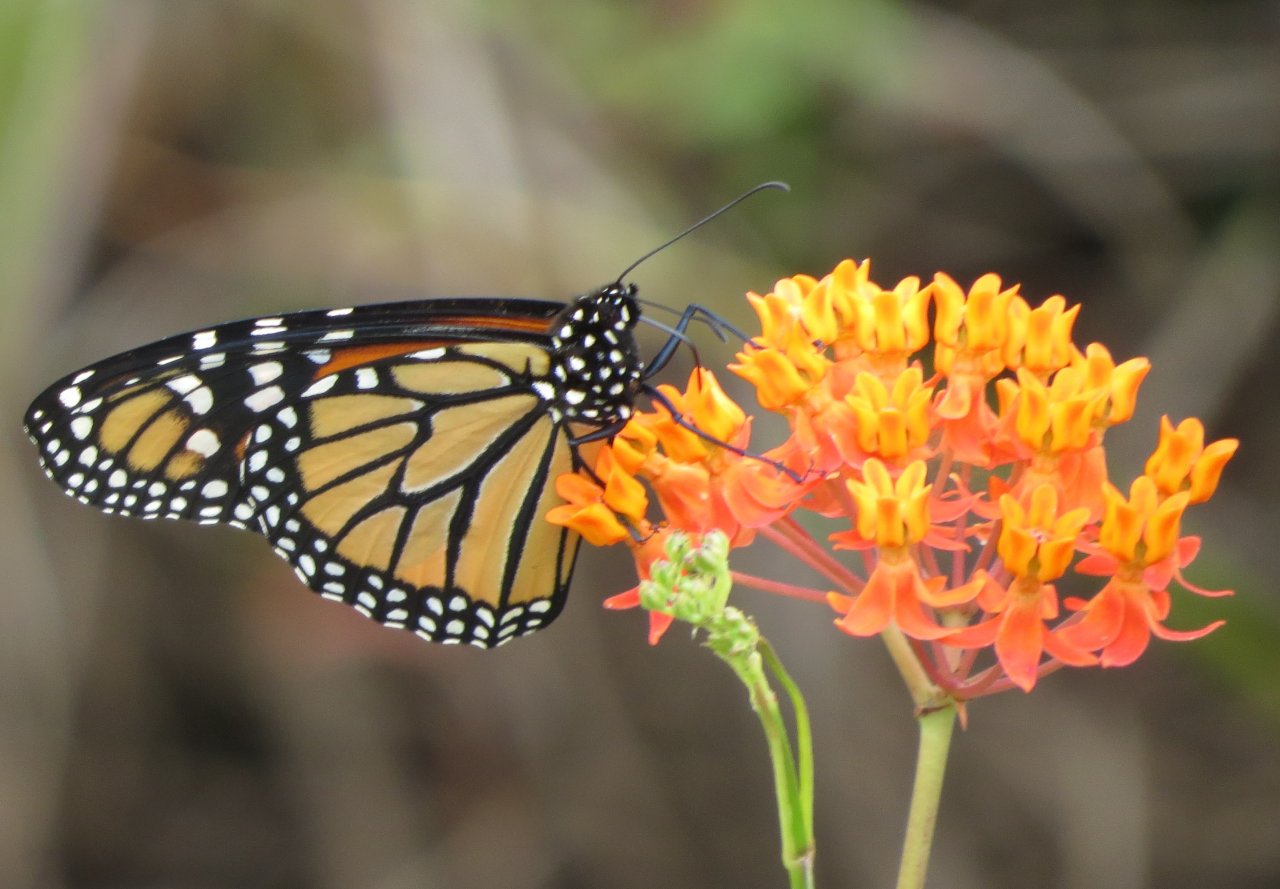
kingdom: Animalia
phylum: Arthropoda
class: Insecta
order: Lepidoptera
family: Nymphalidae
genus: Danaus
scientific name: Danaus plexippus
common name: Monarch
